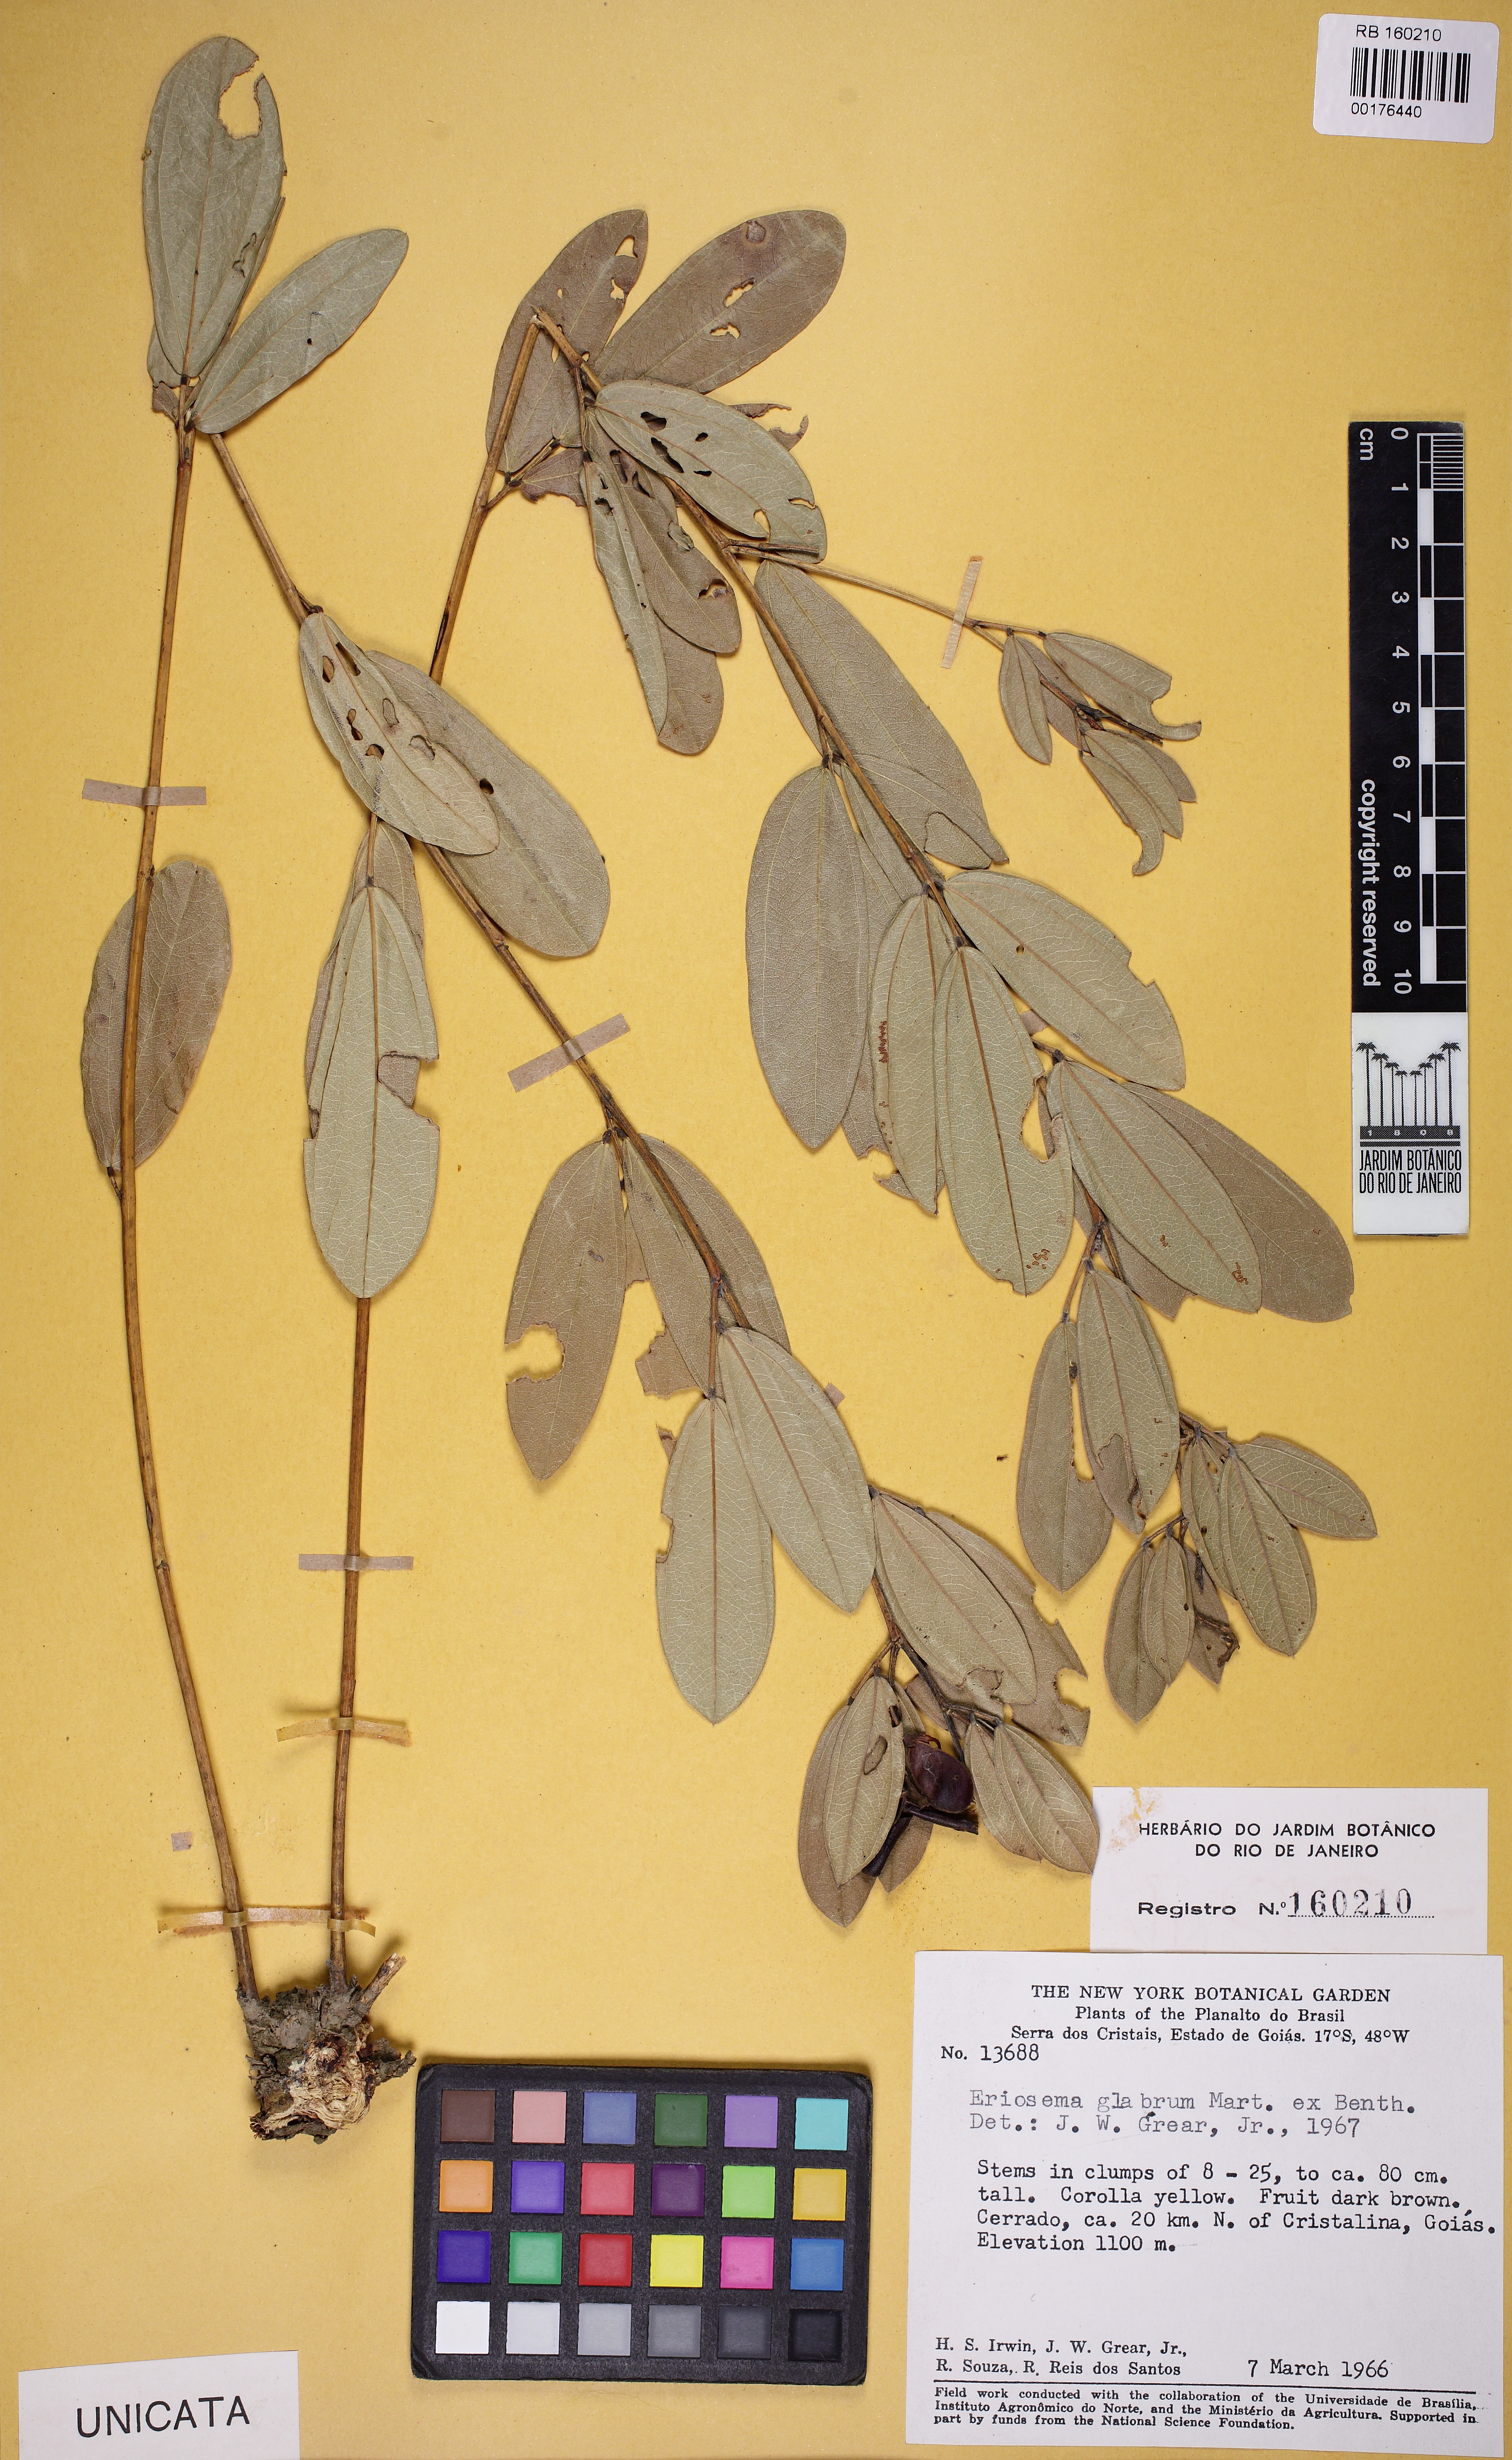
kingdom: Plantae
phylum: Tracheophyta
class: Magnoliopsida
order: Fabales
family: Fabaceae
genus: Eriosema
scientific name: Eriosema
